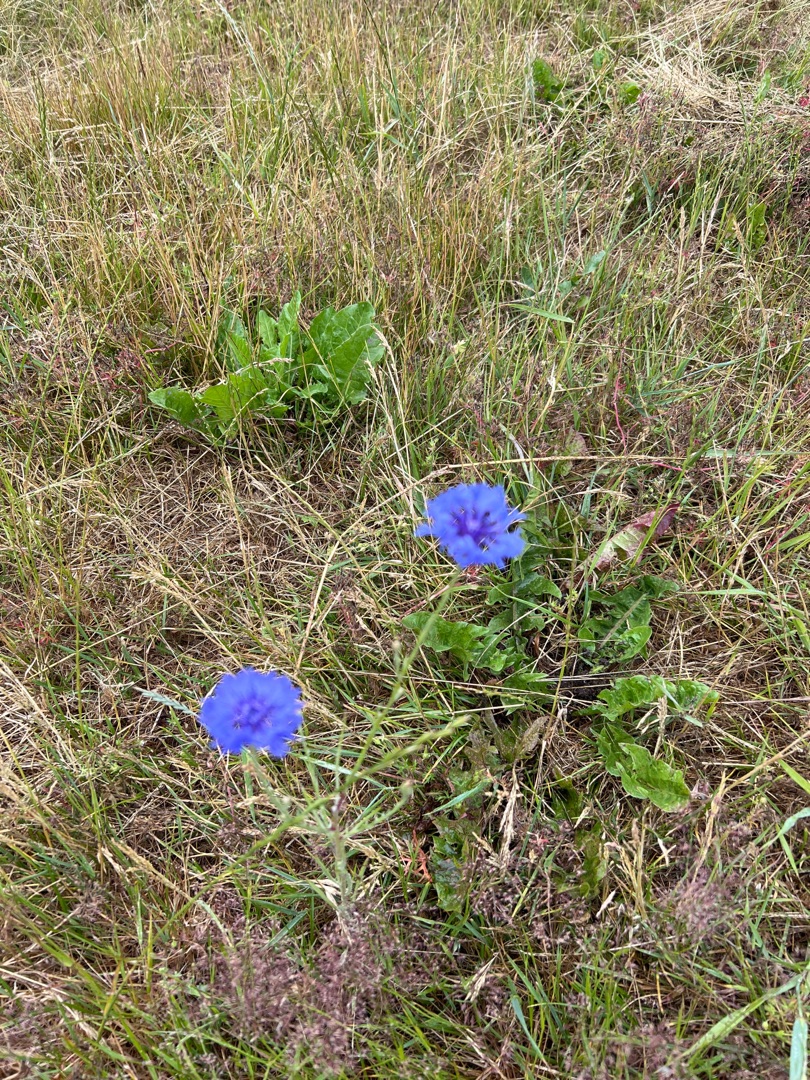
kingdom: Plantae
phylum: Tracheophyta
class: Magnoliopsida
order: Asterales
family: Asteraceae
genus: Centaurea
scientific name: Centaurea cyanus
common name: Kornblomst
